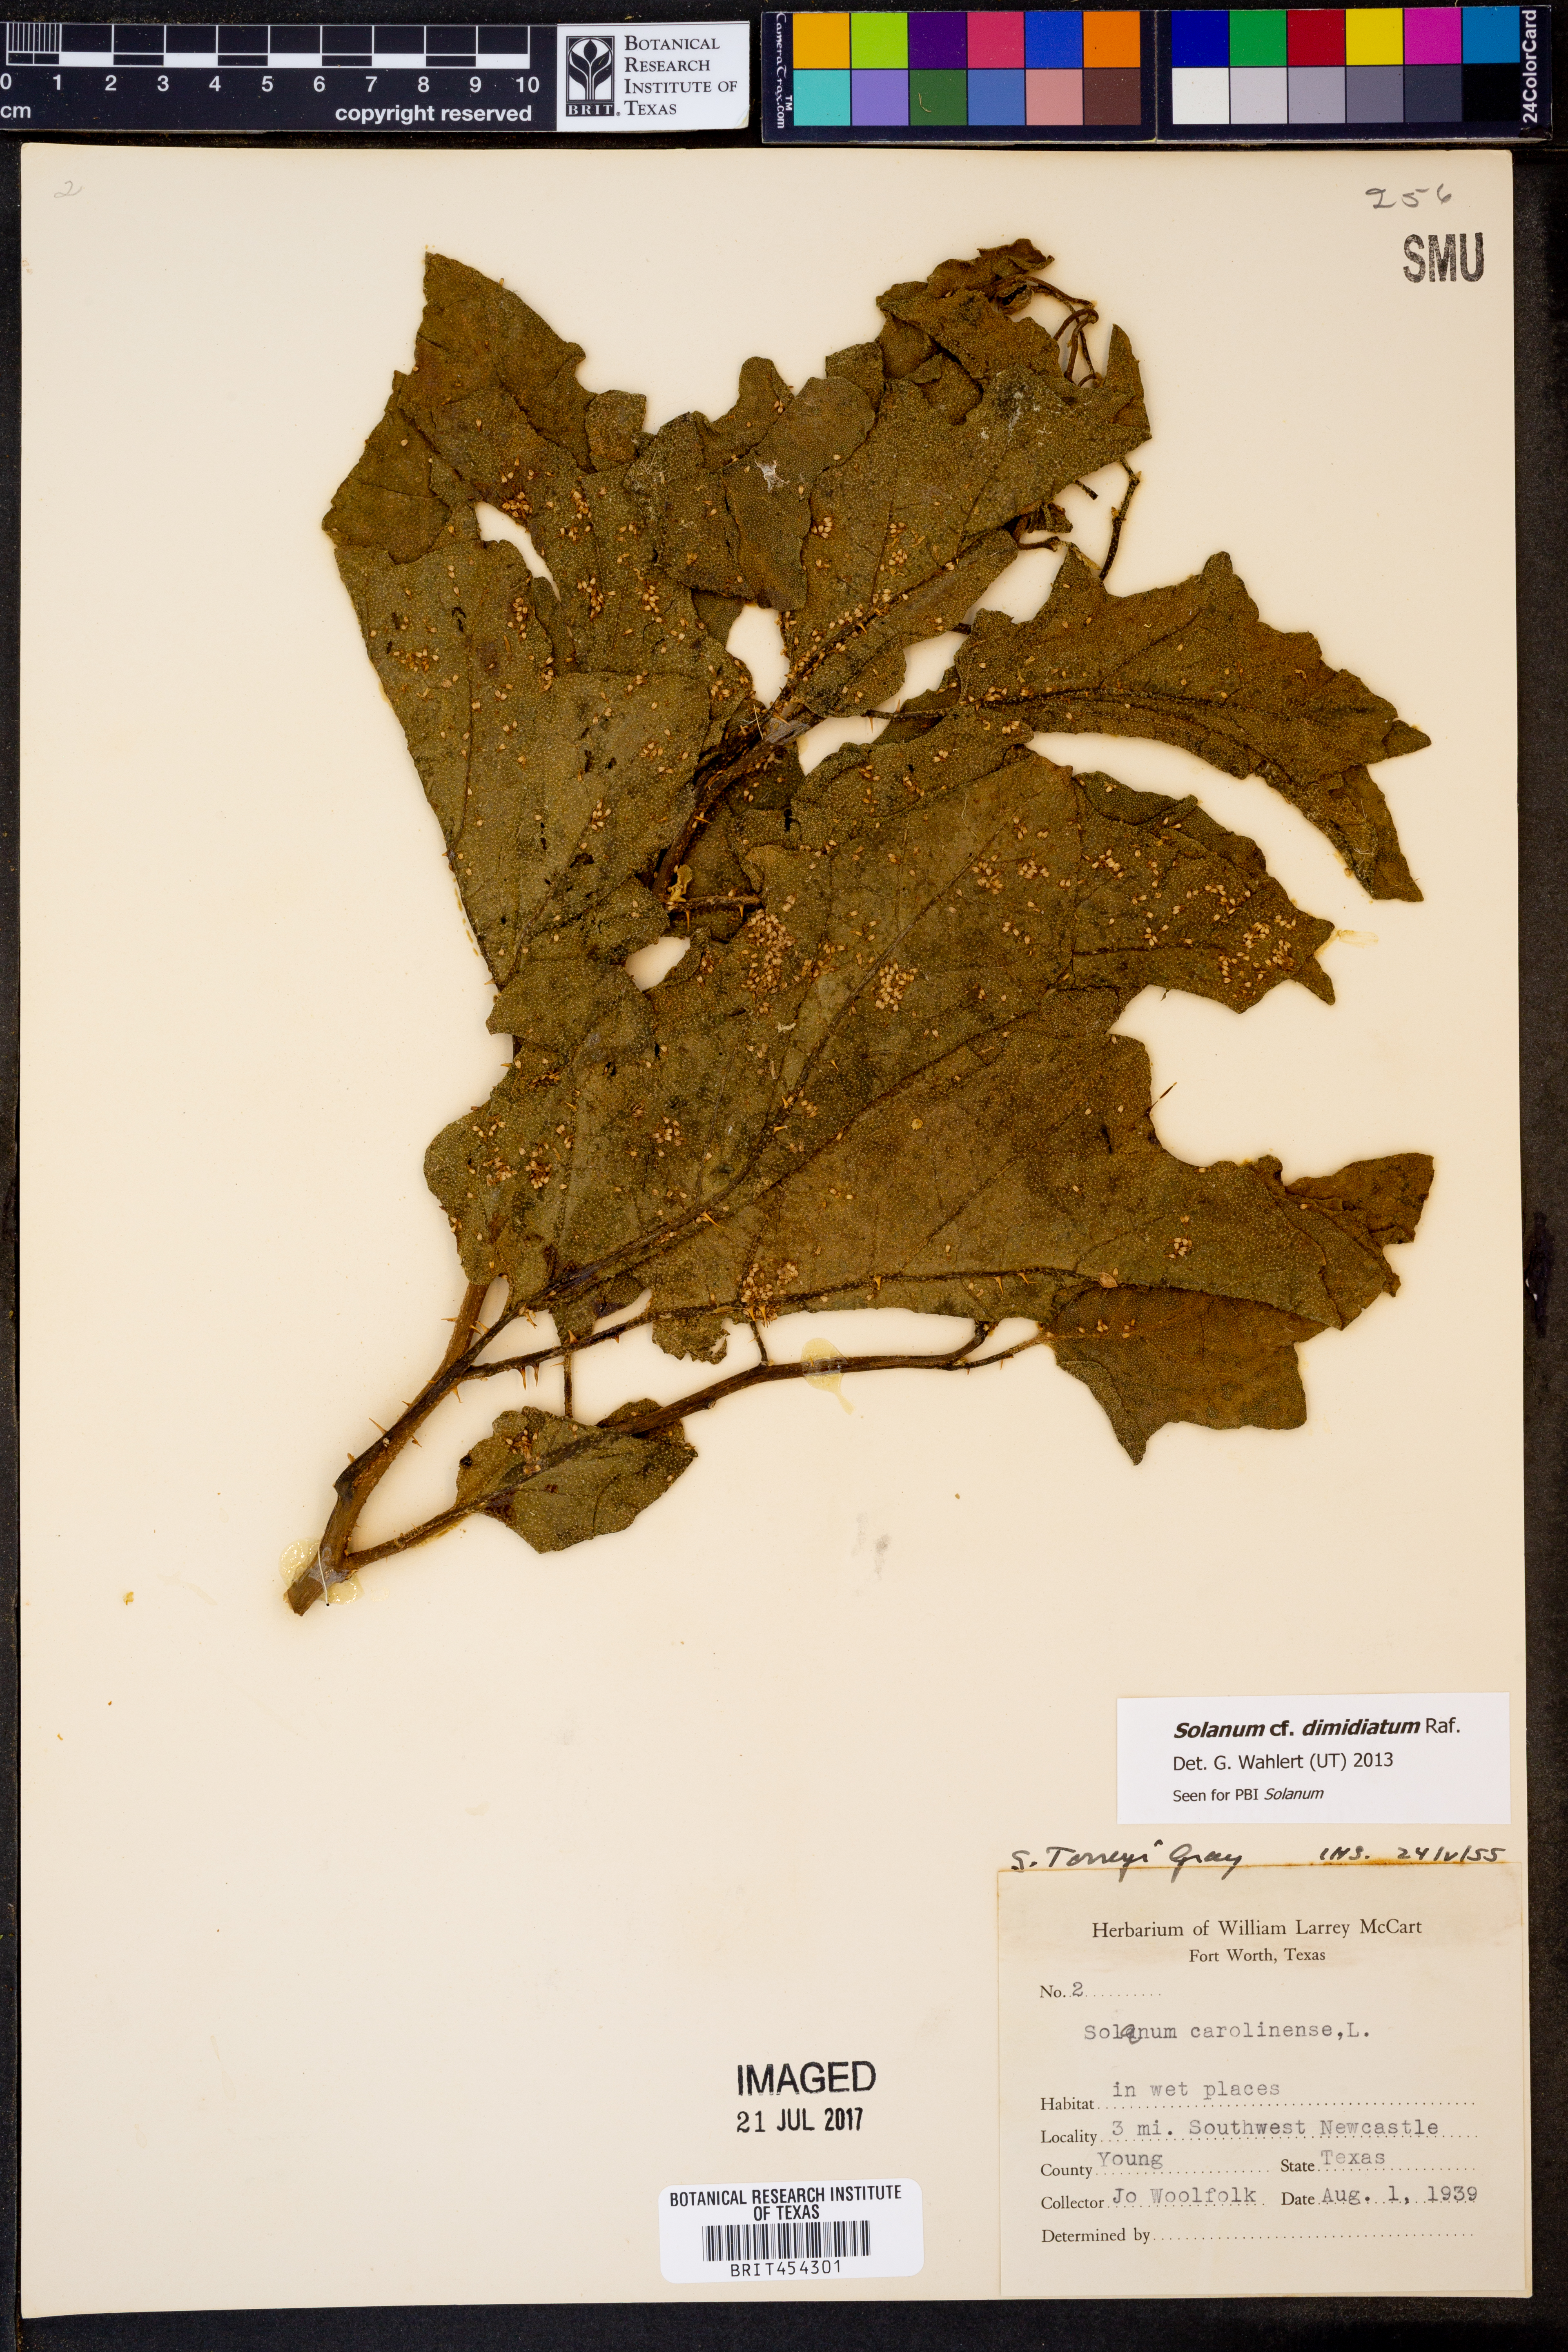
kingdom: Plantae
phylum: Tracheophyta
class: Magnoliopsida
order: Solanales
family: Solanaceae
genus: Solanum
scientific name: Solanum dimidiatum
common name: Carolina horse-nettle
